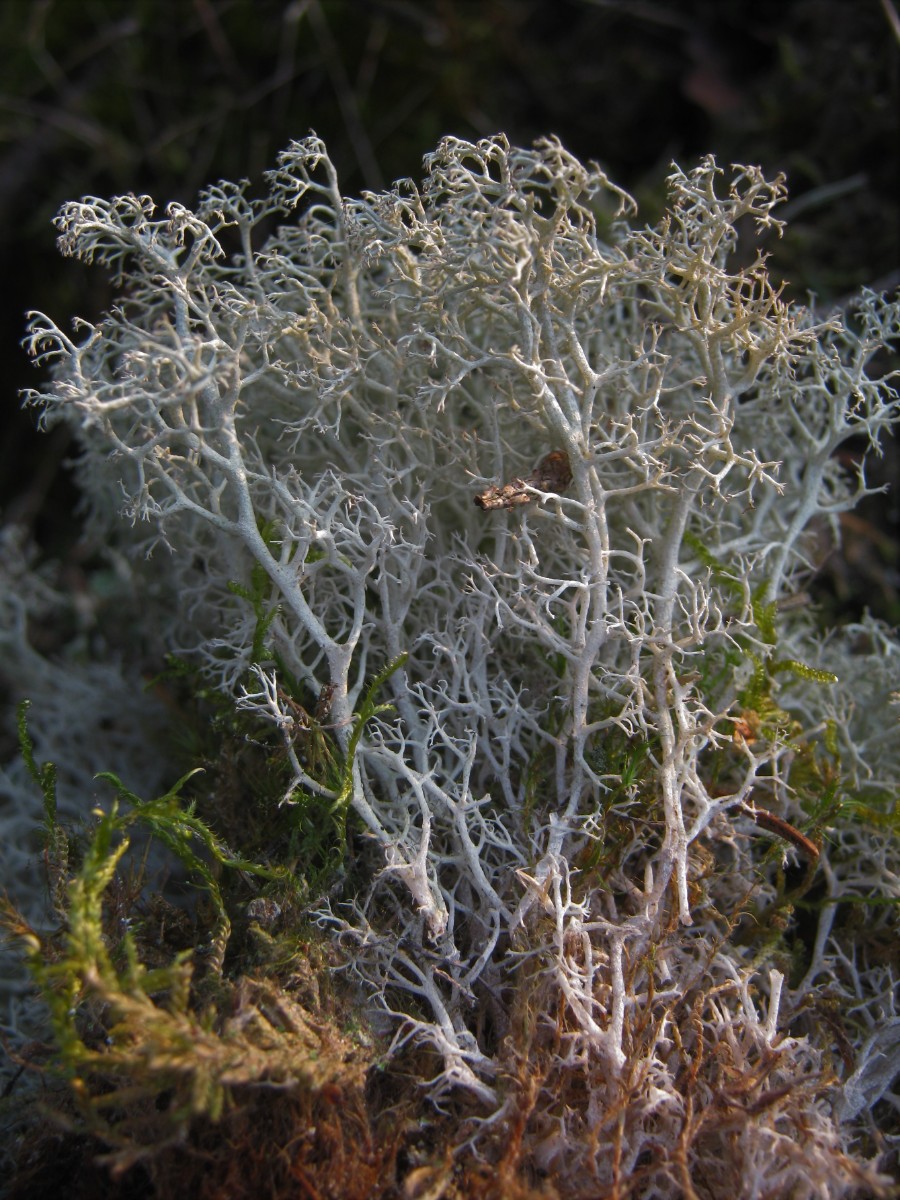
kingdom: Fungi
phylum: Ascomycota
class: Lecanoromycetes
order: Lecanorales
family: Cladoniaceae
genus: Cladonia
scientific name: Cladonia rangiferina
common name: askegrå rensdyrlav
